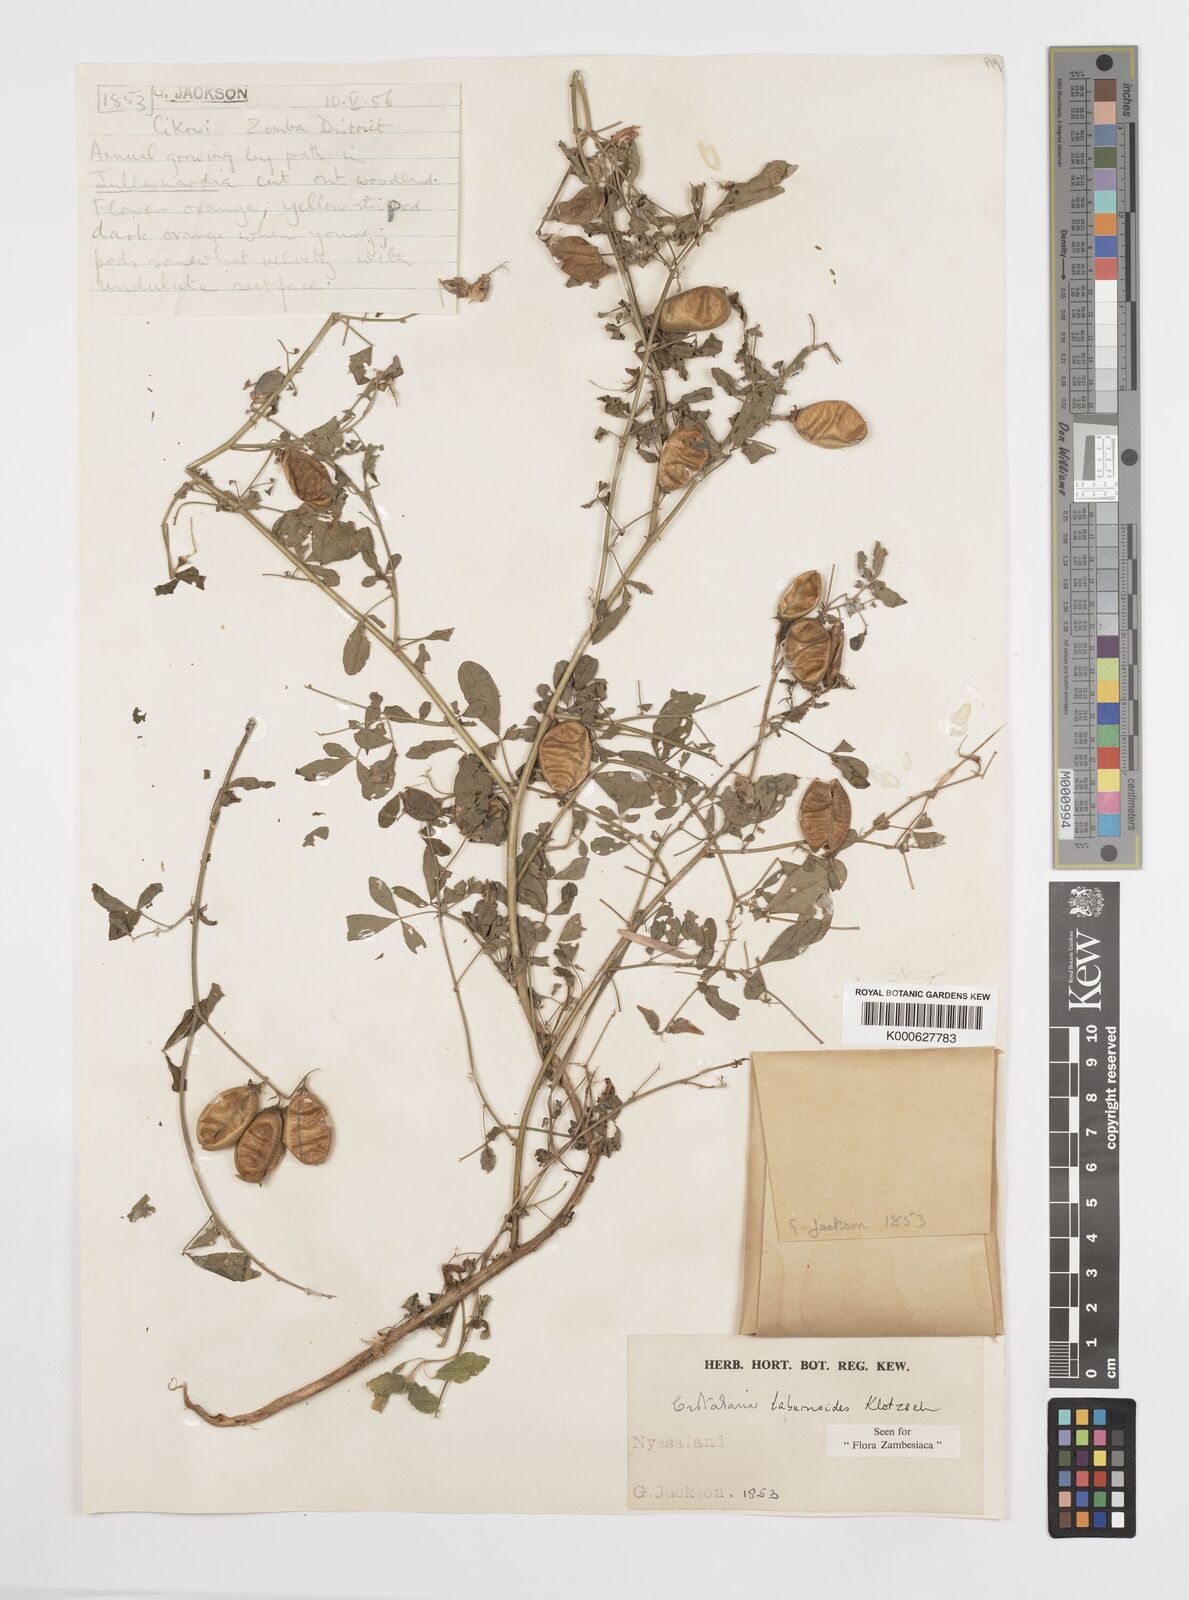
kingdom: Plantae
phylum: Tracheophyta
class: Magnoliopsida
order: Fabales
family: Fabaceae
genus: Crotalaria
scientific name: Crotalaria laburnoides
